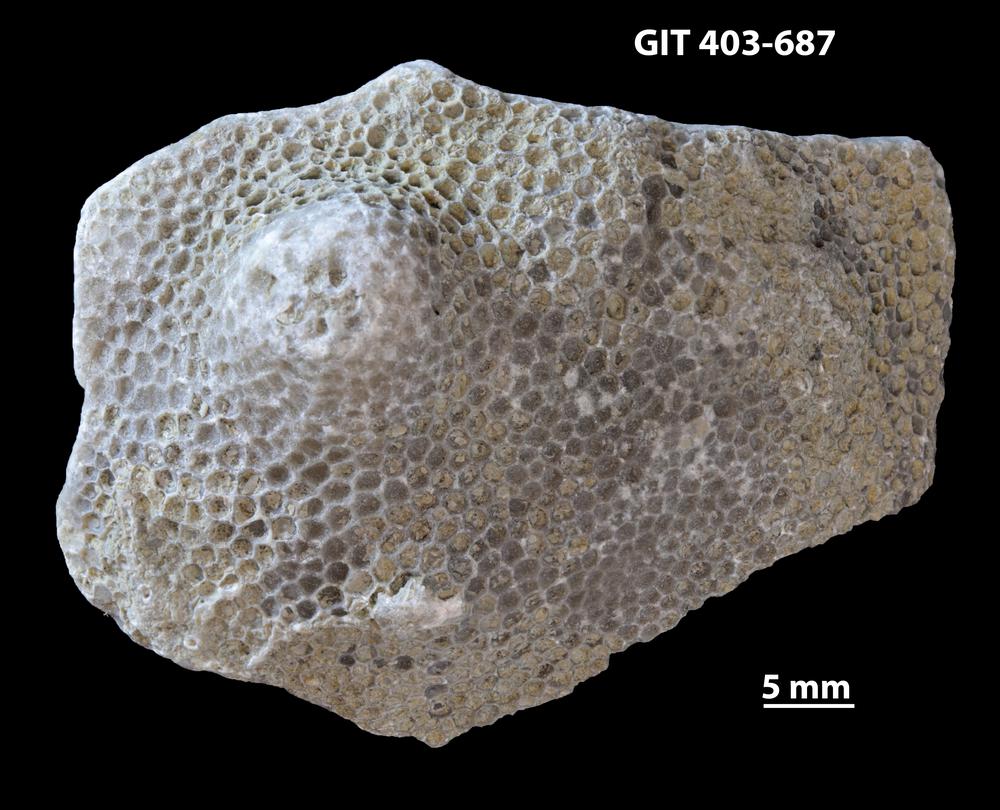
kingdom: Animalia
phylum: Cnidaria
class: Anthozoa
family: Favositidae
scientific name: Favositidae
